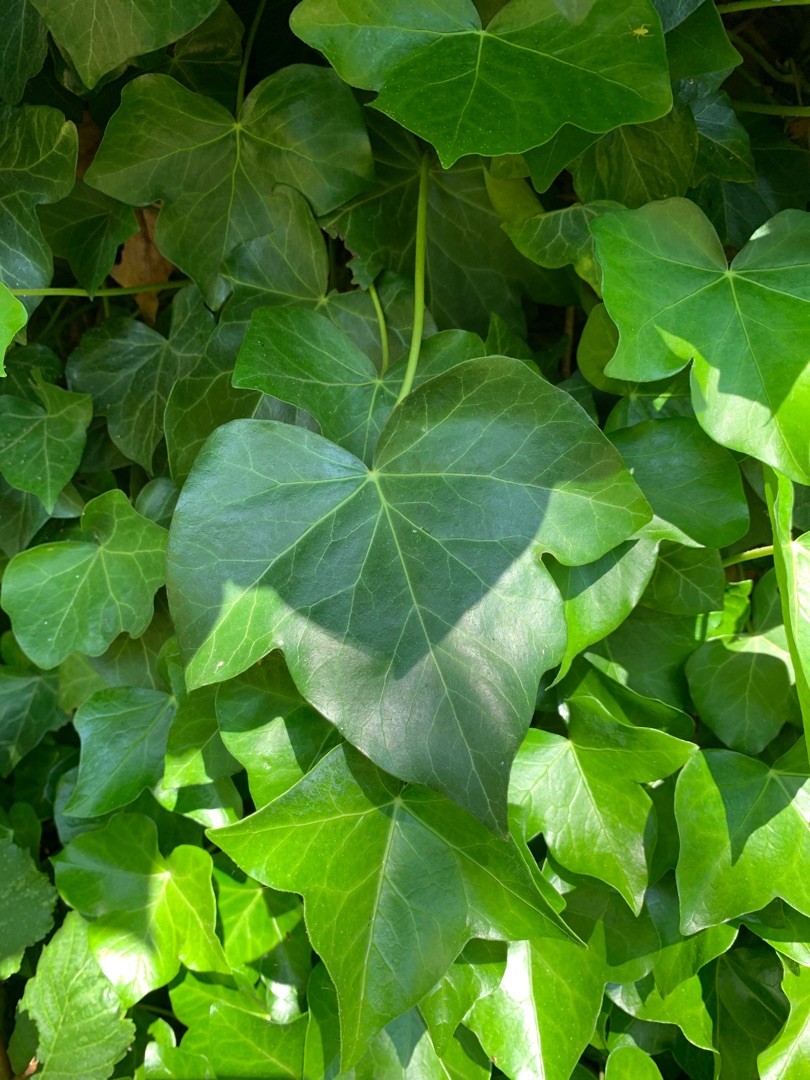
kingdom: Plantae
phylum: Tracheophyta
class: Magnoliopsida
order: Apiales
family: Araliaceae
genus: Hedera
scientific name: Hedera helix
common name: Vedbend
